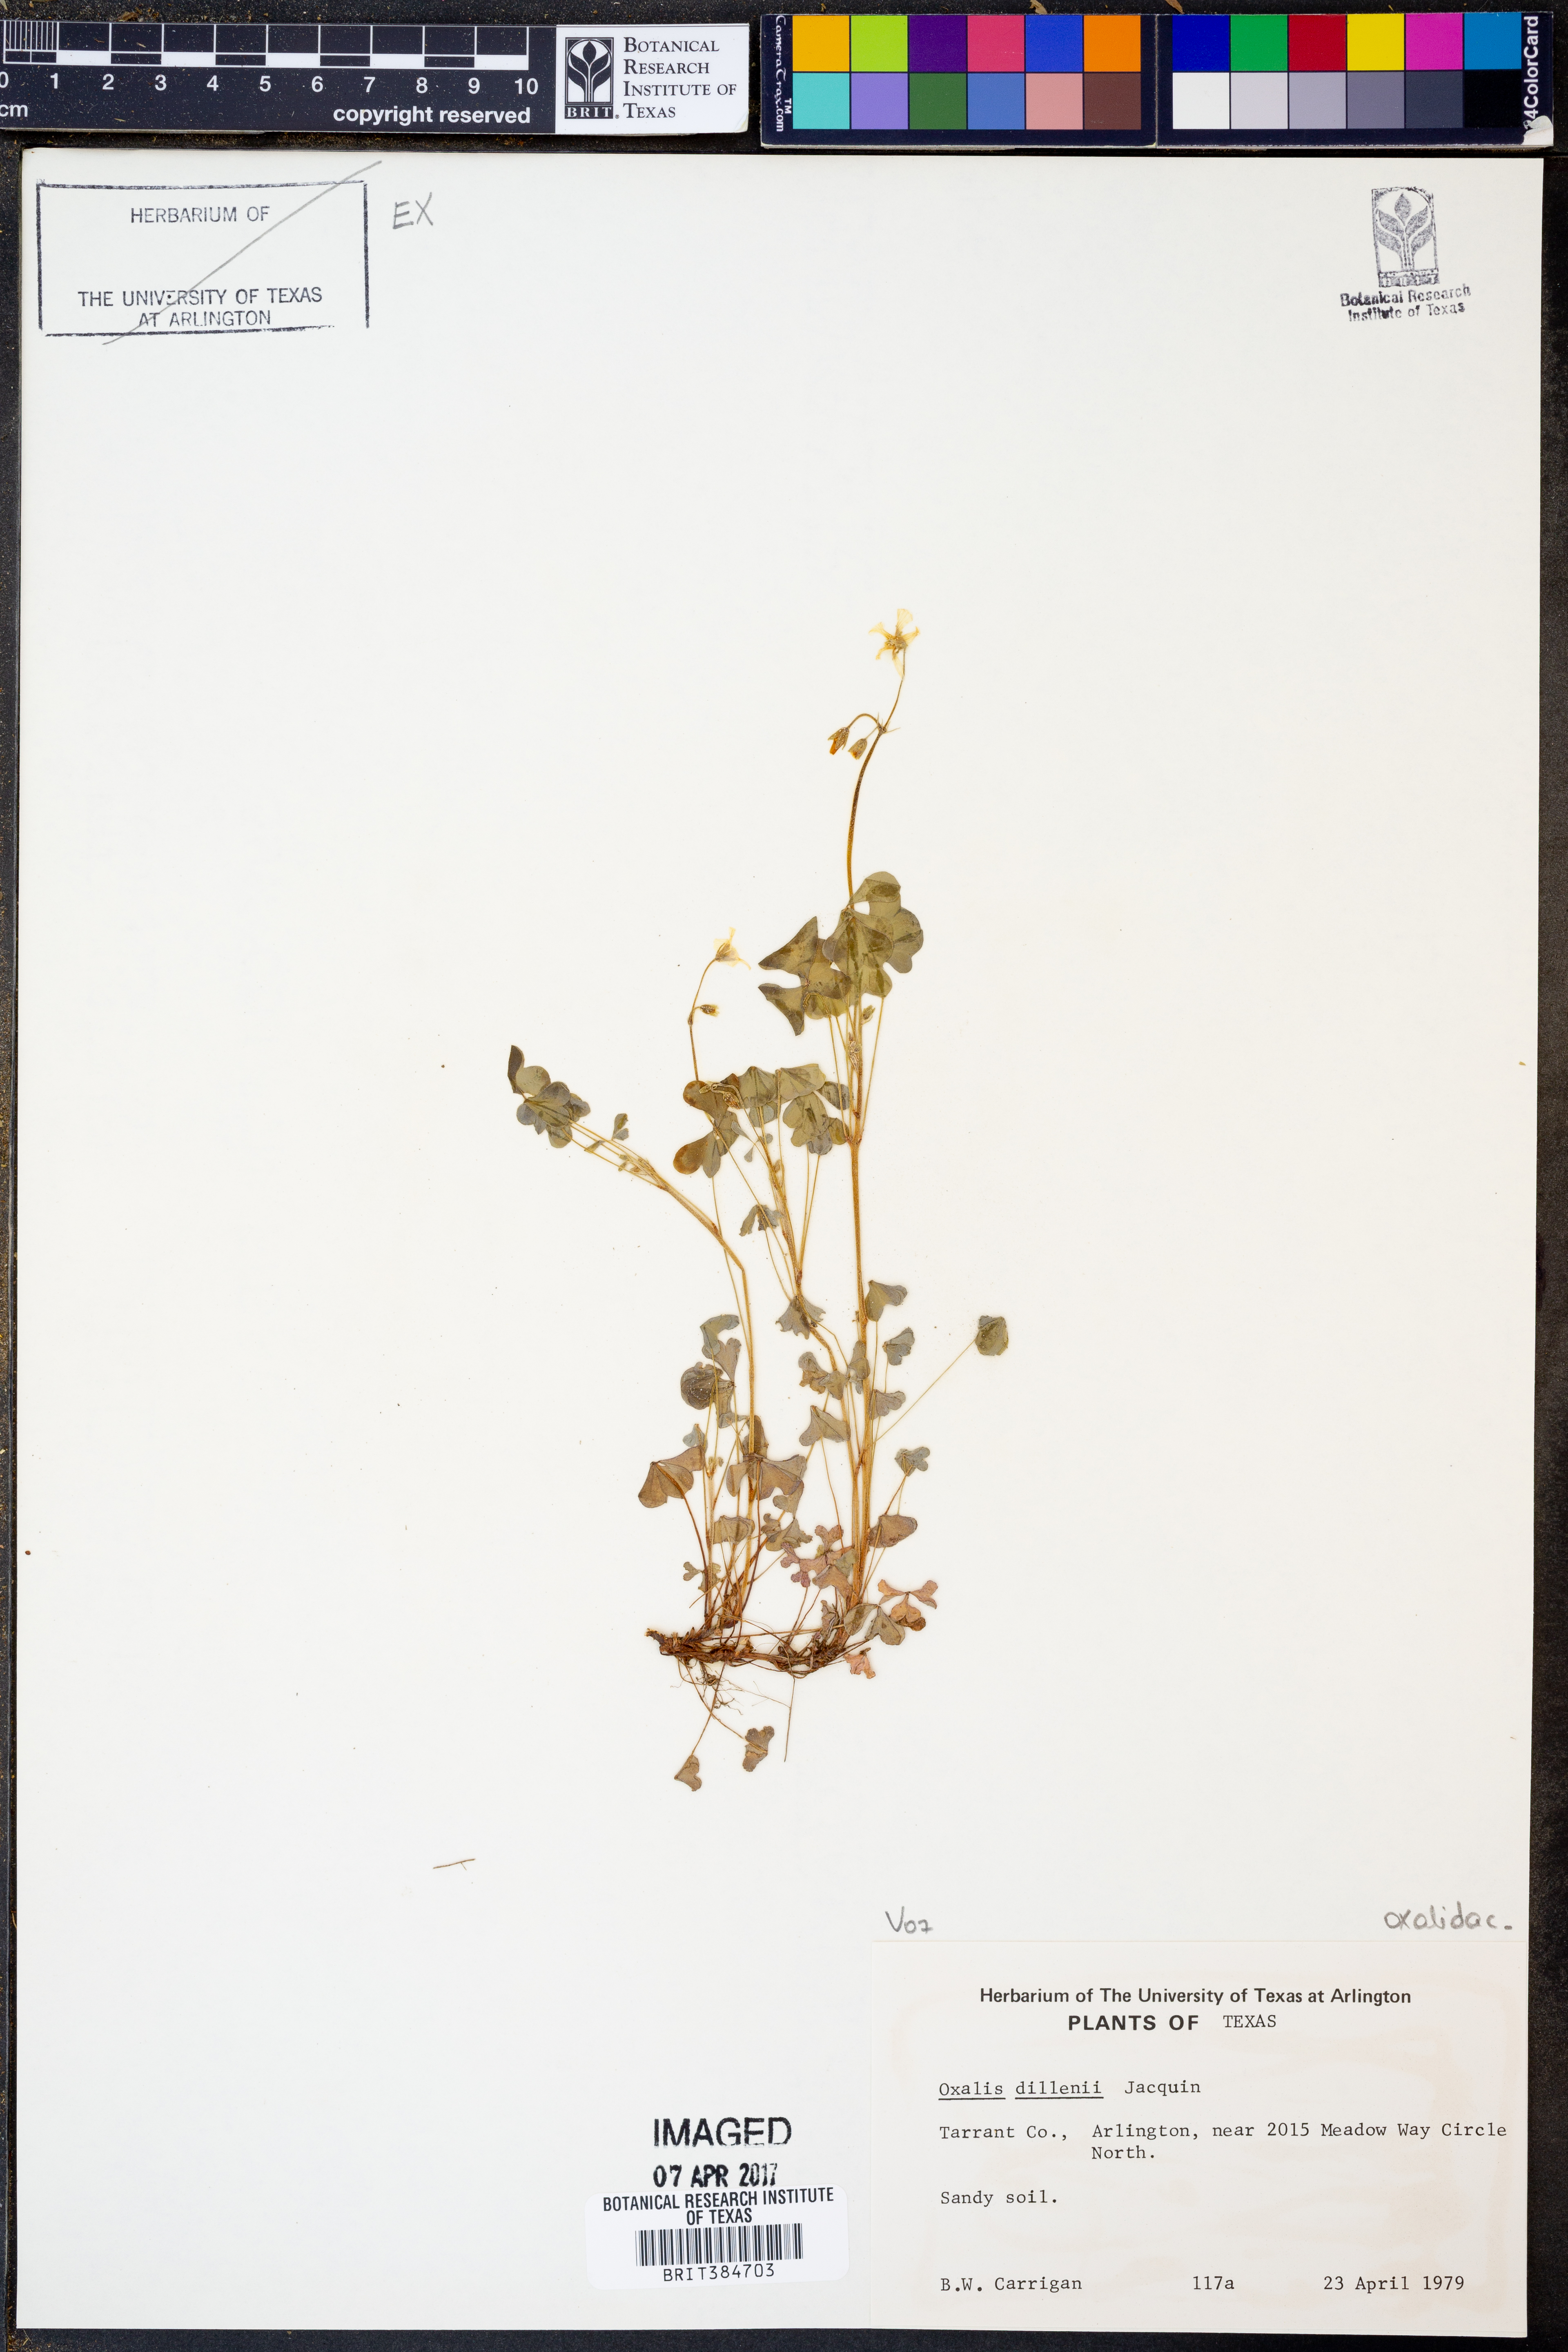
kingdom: Plantae
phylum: Tracheophyta
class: Magnoliopsida
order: Oxalidales
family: Oxalidaceae
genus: Oxalis
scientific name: Oxalis dillenii
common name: Sussex yellow-sorrel
